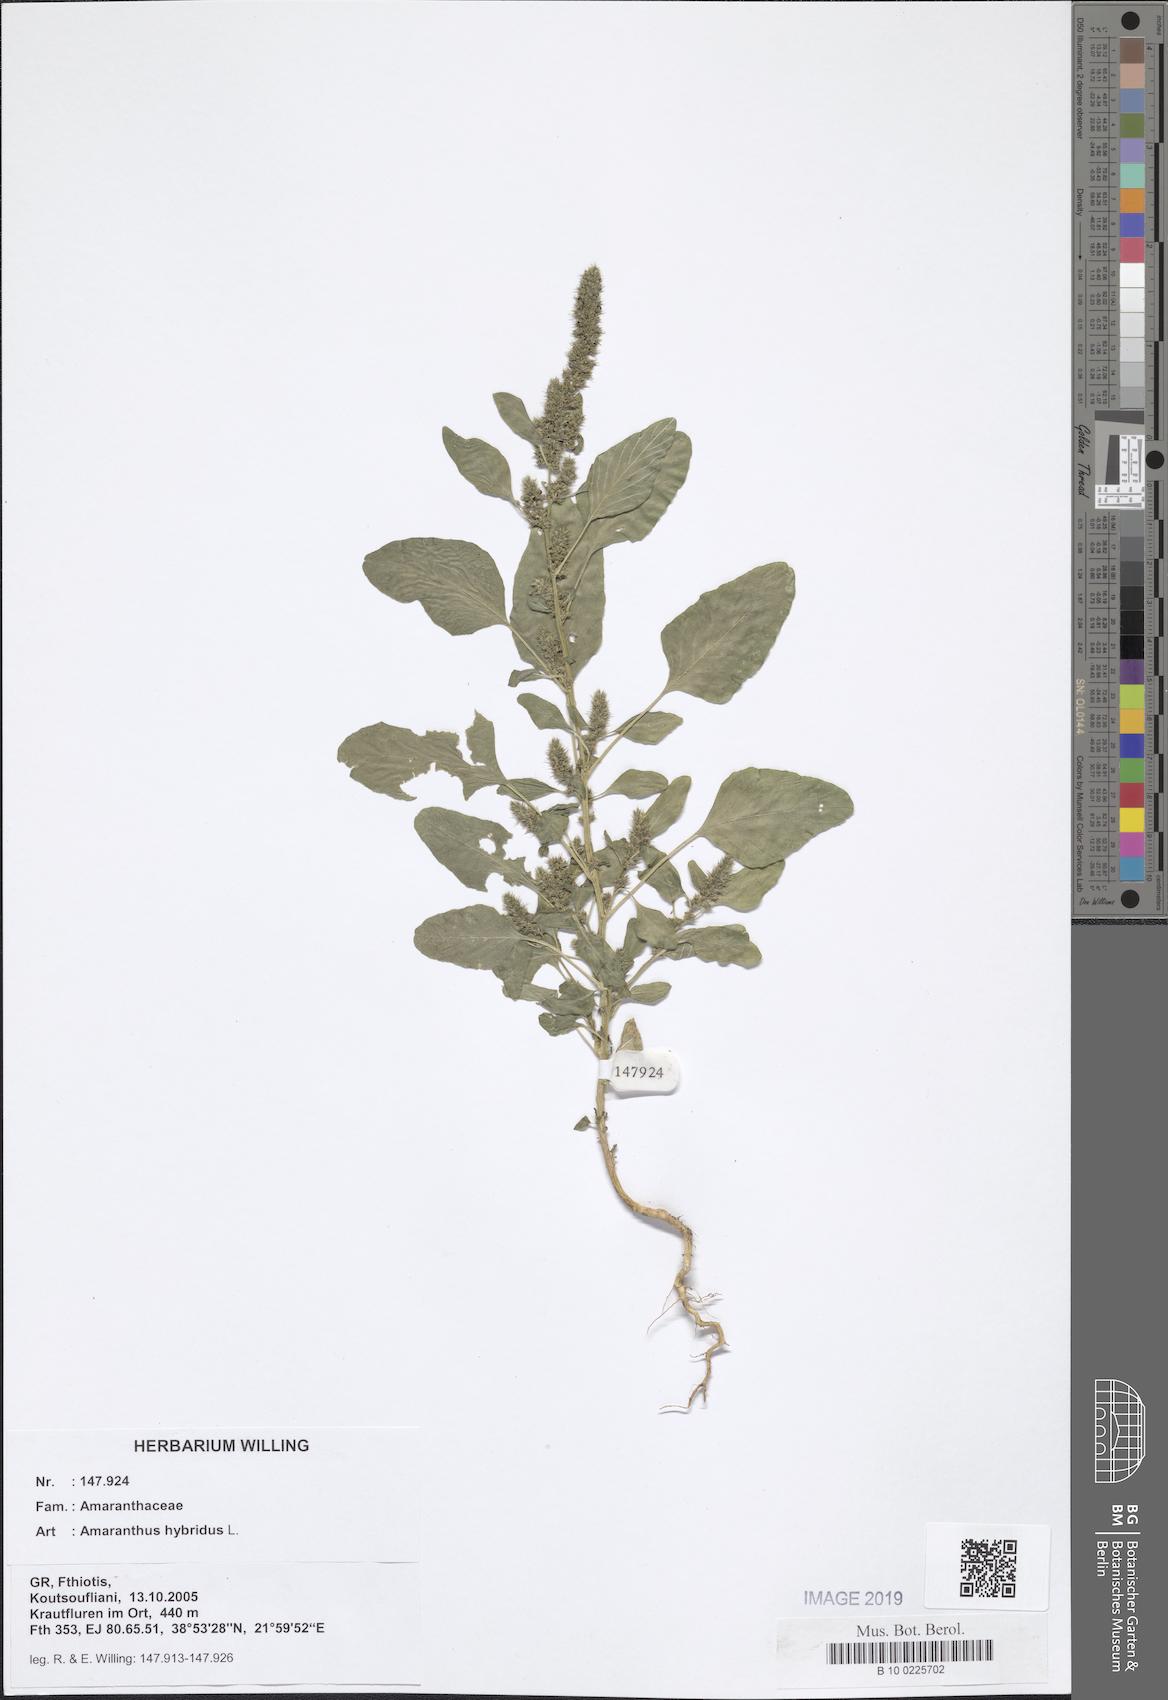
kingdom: Plantae
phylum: Tracheophyta
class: Magnoliopsida
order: Caryophyllales
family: Amaranthaceae
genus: Amaranthus
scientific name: Amaranthus hybridus
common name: Green amaranth
